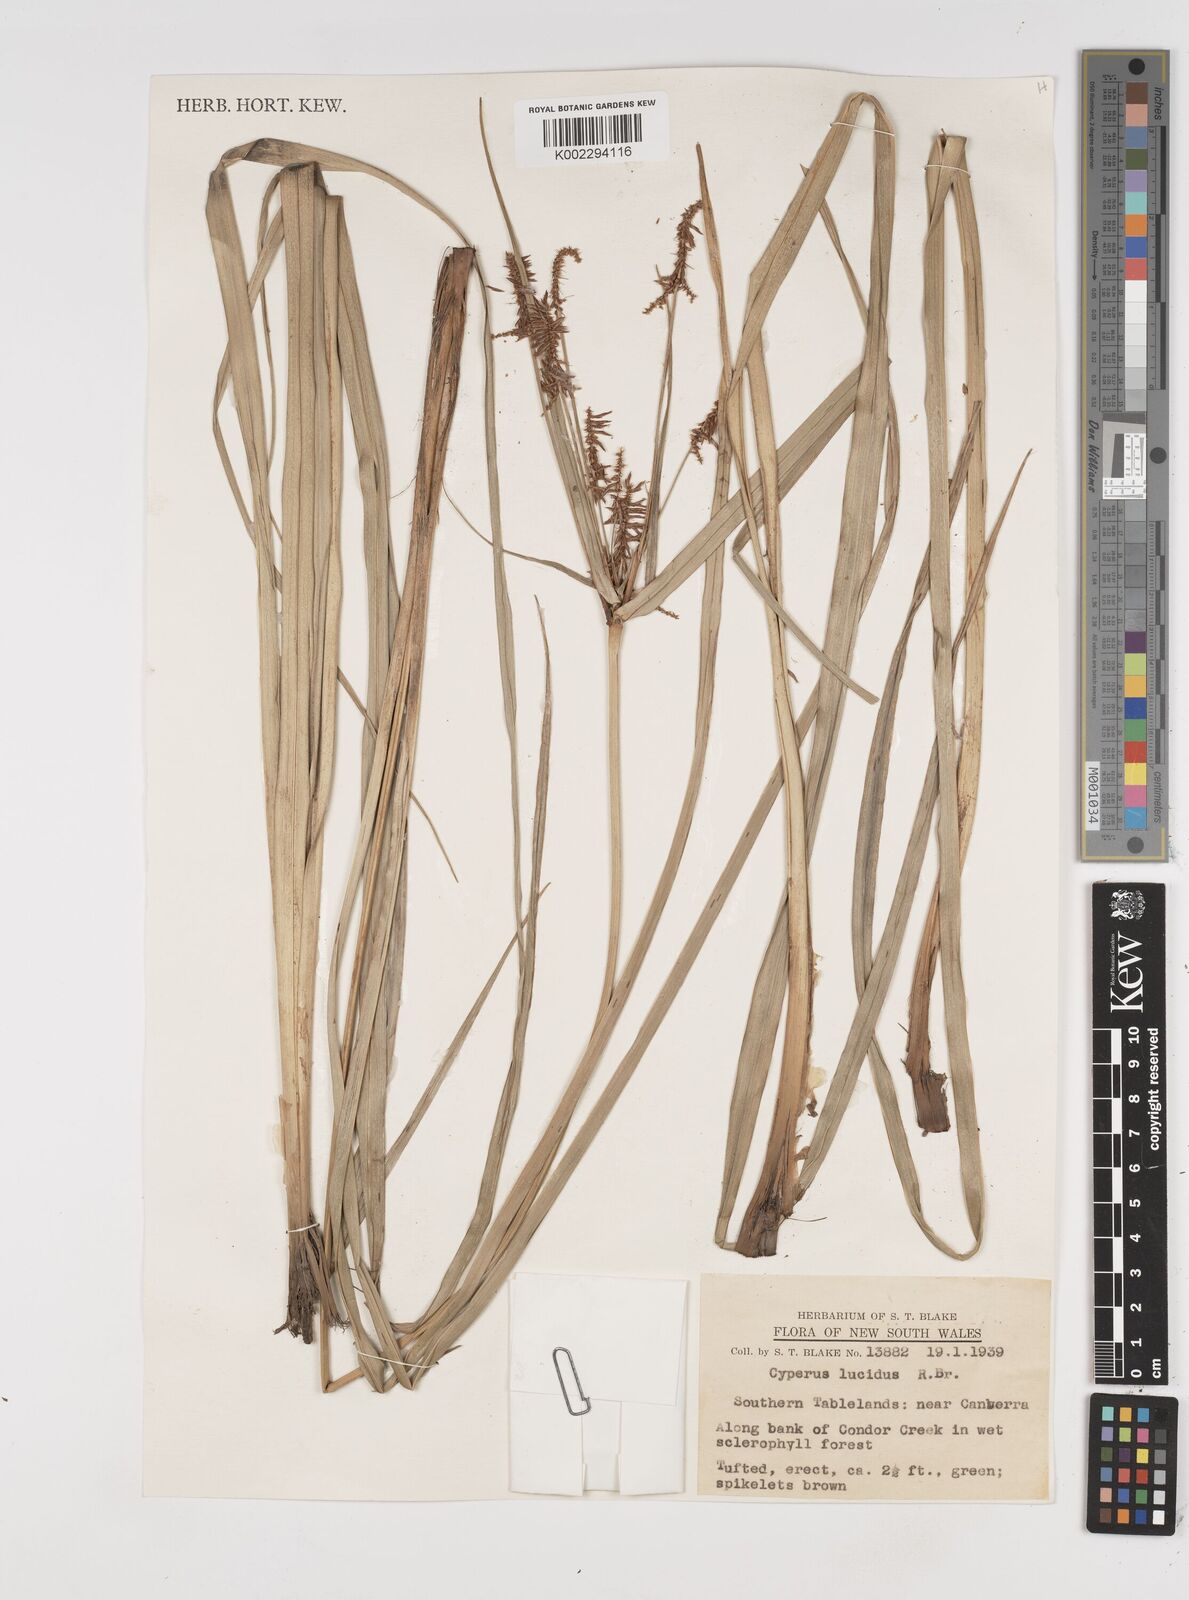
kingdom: Plantae
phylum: Tracheophyta
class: Liliopsida
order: Poales
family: Cyperaceae
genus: Cyperus
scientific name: Cyperus lucidus
